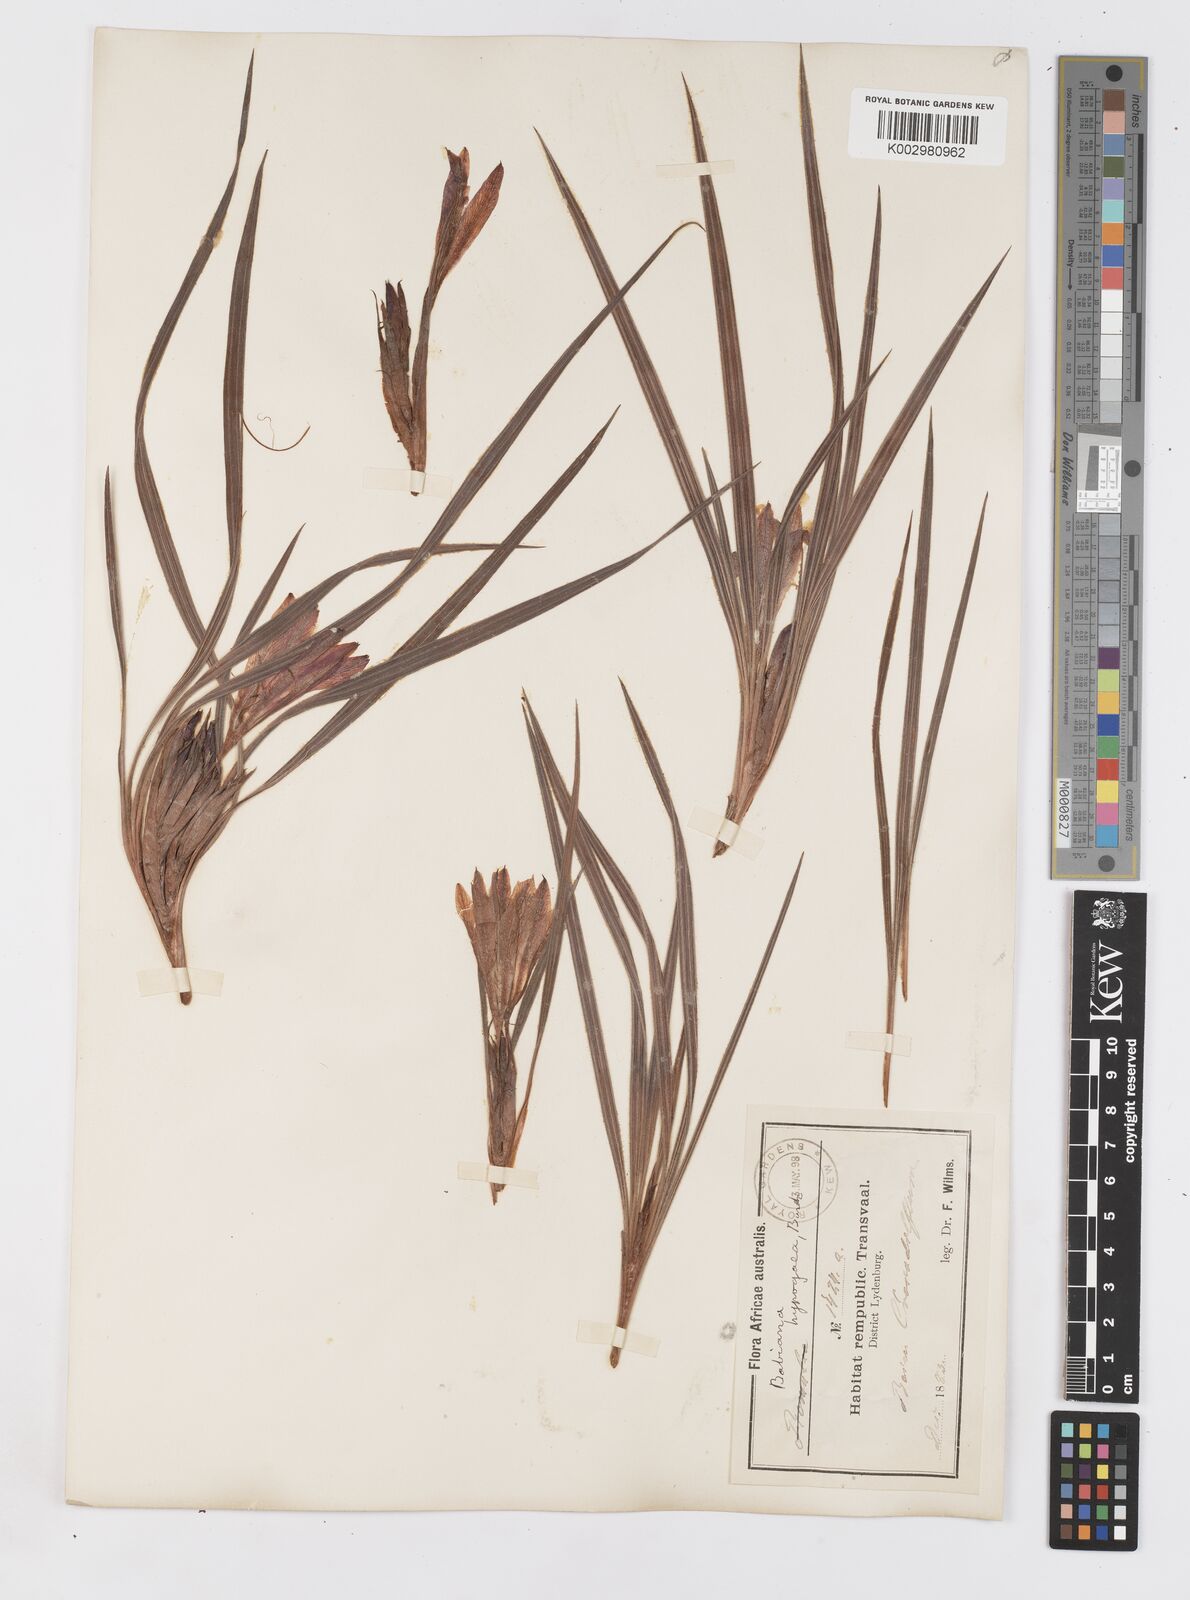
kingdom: Plantae
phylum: Tracheophyta
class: Liliopsida
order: Asparagales
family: Iridaceae
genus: Babiana
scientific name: Babiana bainesii
